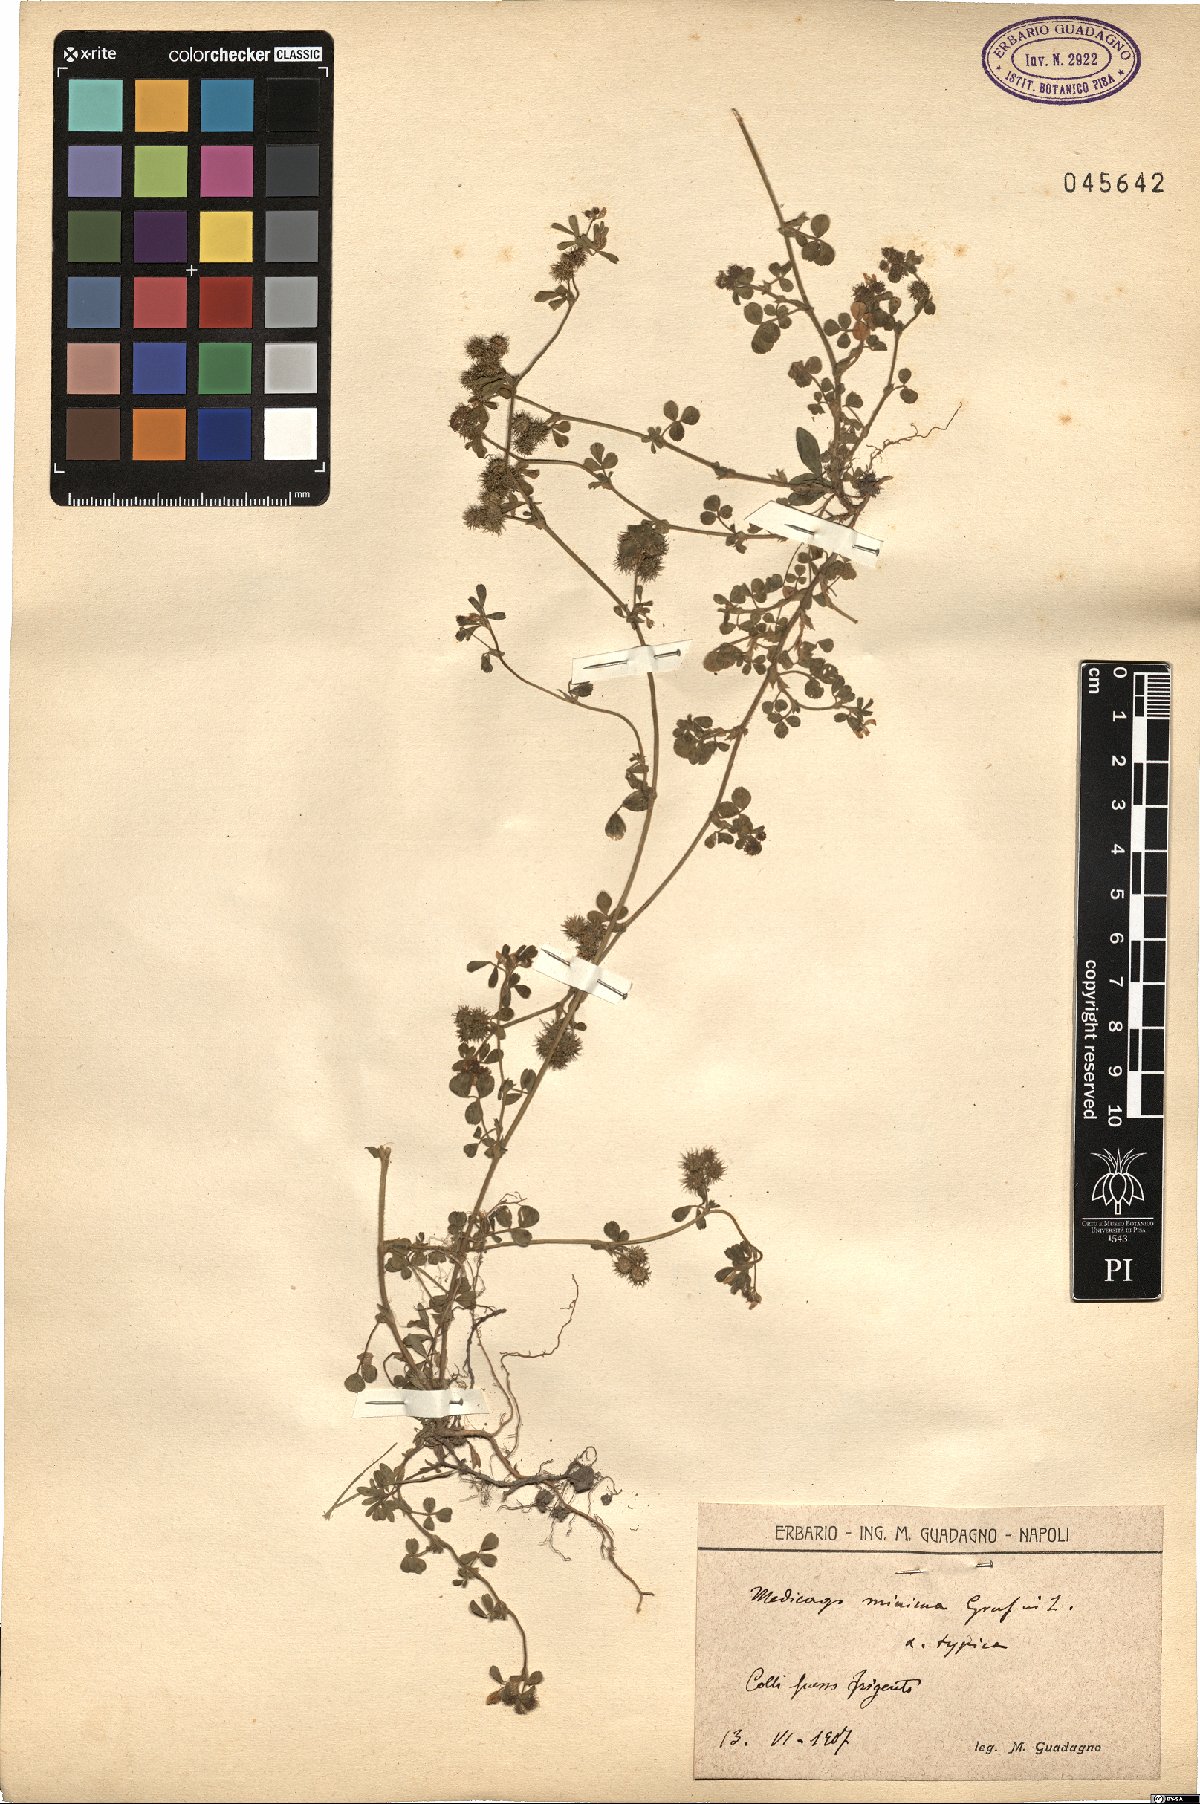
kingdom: Plantae
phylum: Tracheophyta
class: Magnoliopsida
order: Fabales
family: Fabaceae
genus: Medicago
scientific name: Medicago minima
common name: Little bur-clover
